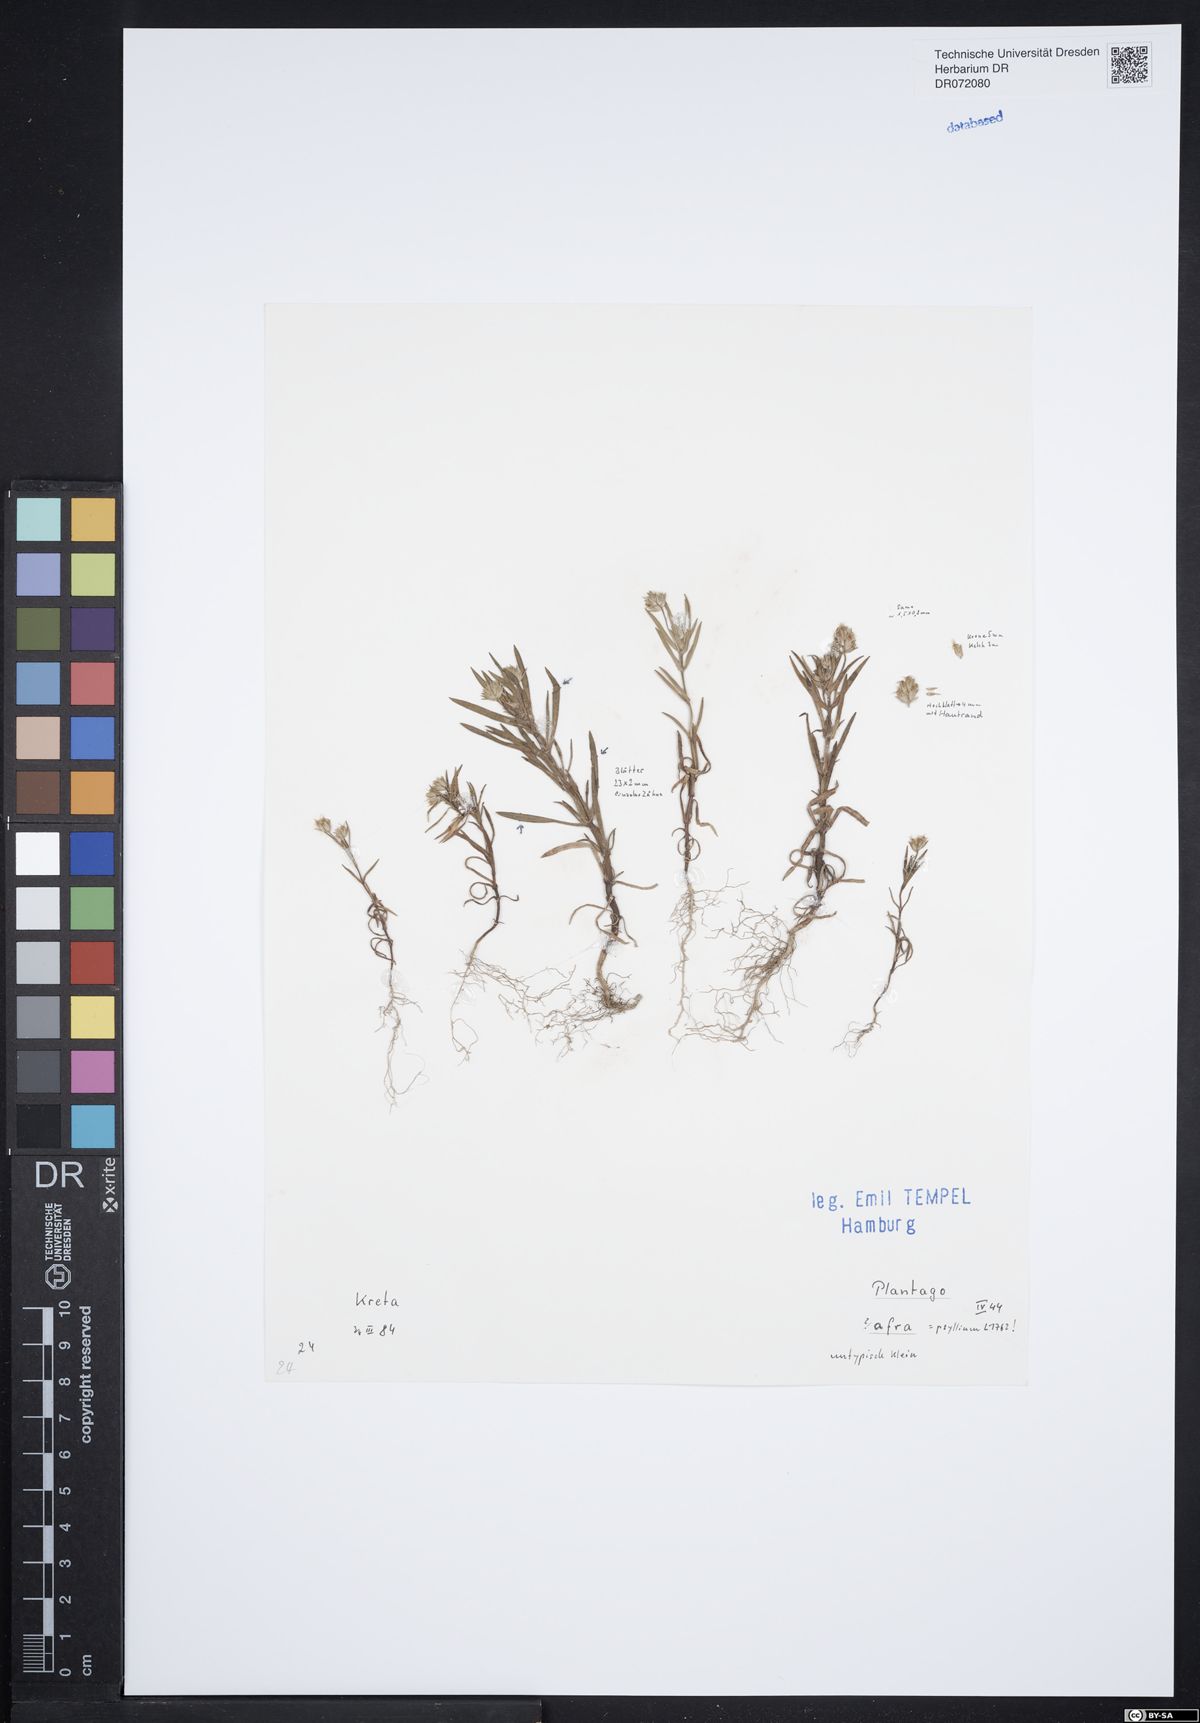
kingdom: Plantae
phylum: Tracheophyta
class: Magnoliopsida
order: Lamiales
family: Plantaginaceae
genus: Plantago
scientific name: Plantago afra
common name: Glandular plantain
